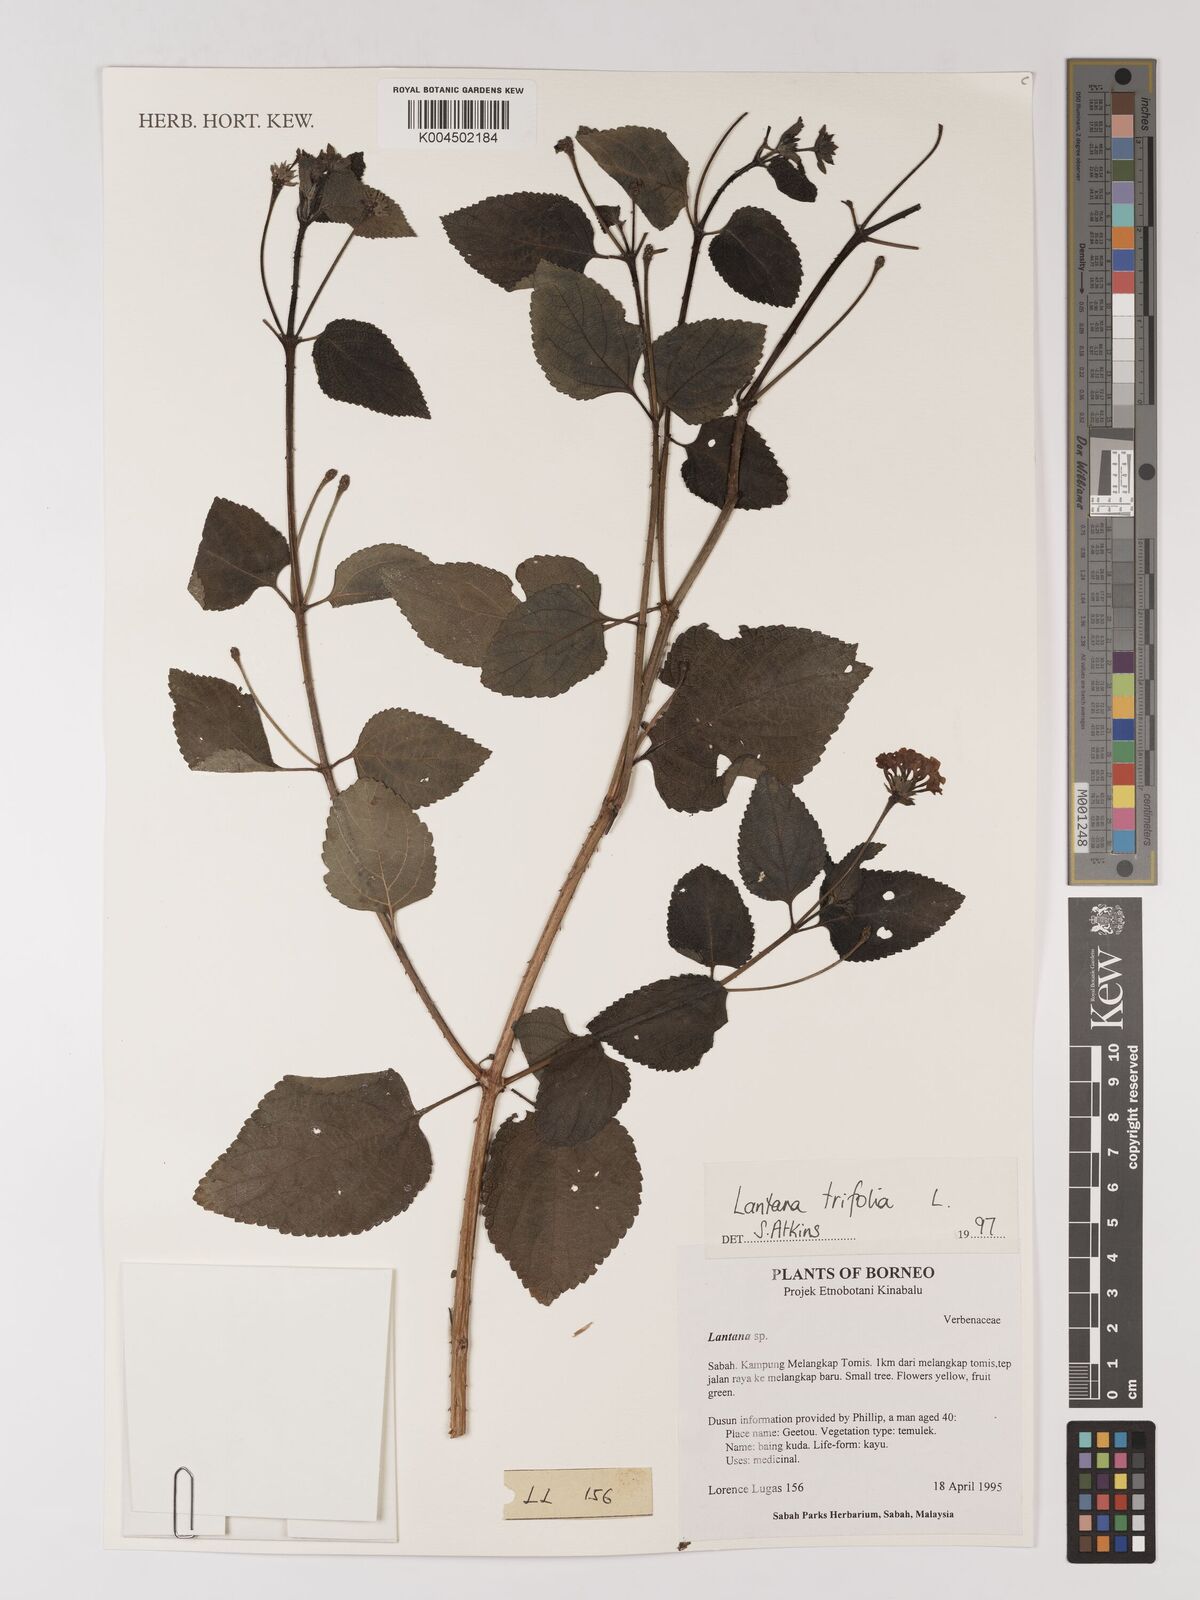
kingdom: Plantae
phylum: Tracheophyta
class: Magnoliopsida
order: Lamiales
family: Verbenaceae
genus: Lantana
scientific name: Lantana trifolia
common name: Sweet-sage
